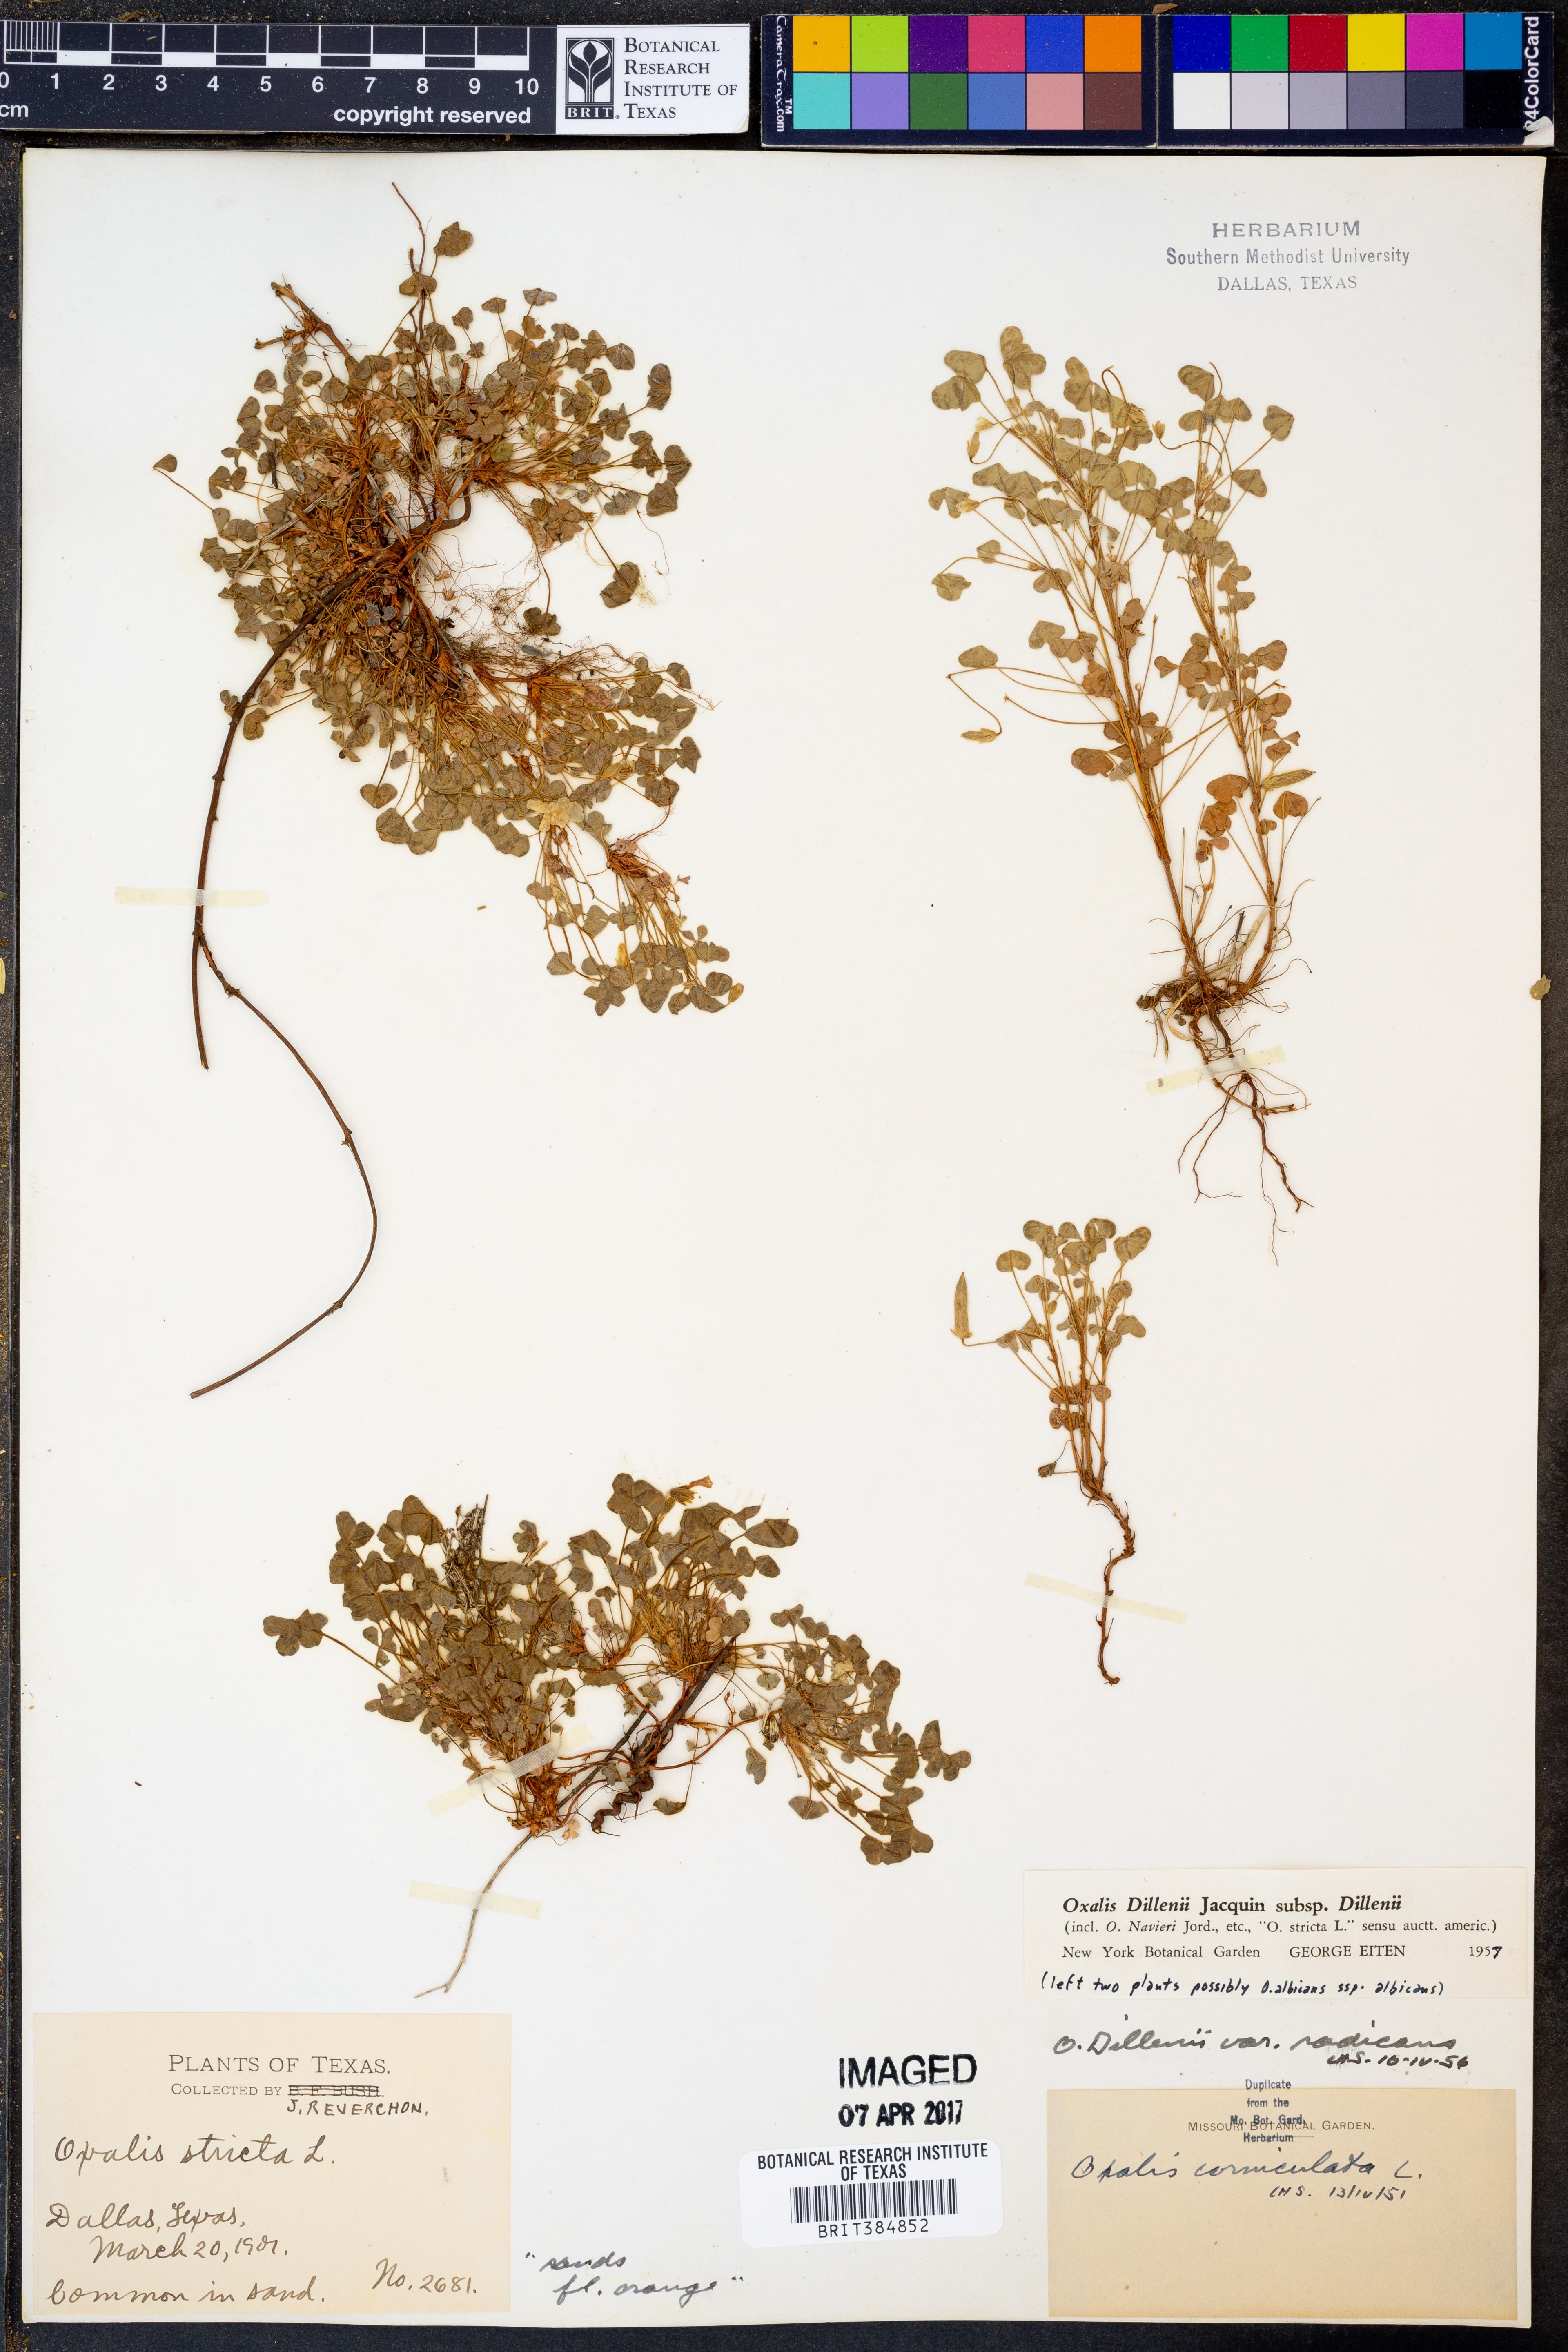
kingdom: Plantae
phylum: Tracheophyta
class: Magnoliopsida
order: Oxalidales
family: Oxalidaceae
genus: Oxalis
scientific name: Oxalis dillenii
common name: Sussex yellow-sorrel
